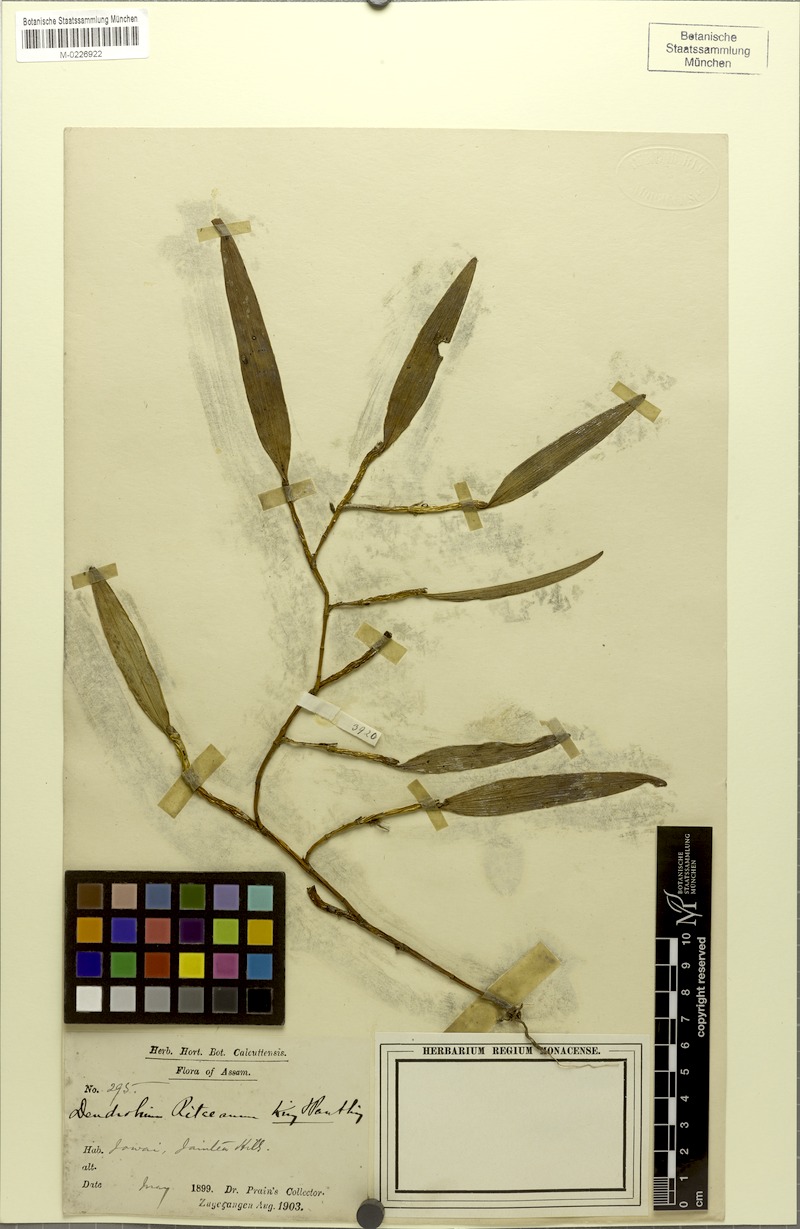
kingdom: Plantae
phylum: Tracheophyta
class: Liliopsida
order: Asparagales
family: Orchidaceae
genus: Dendrobium
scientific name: Dendrobium ritaeanum
